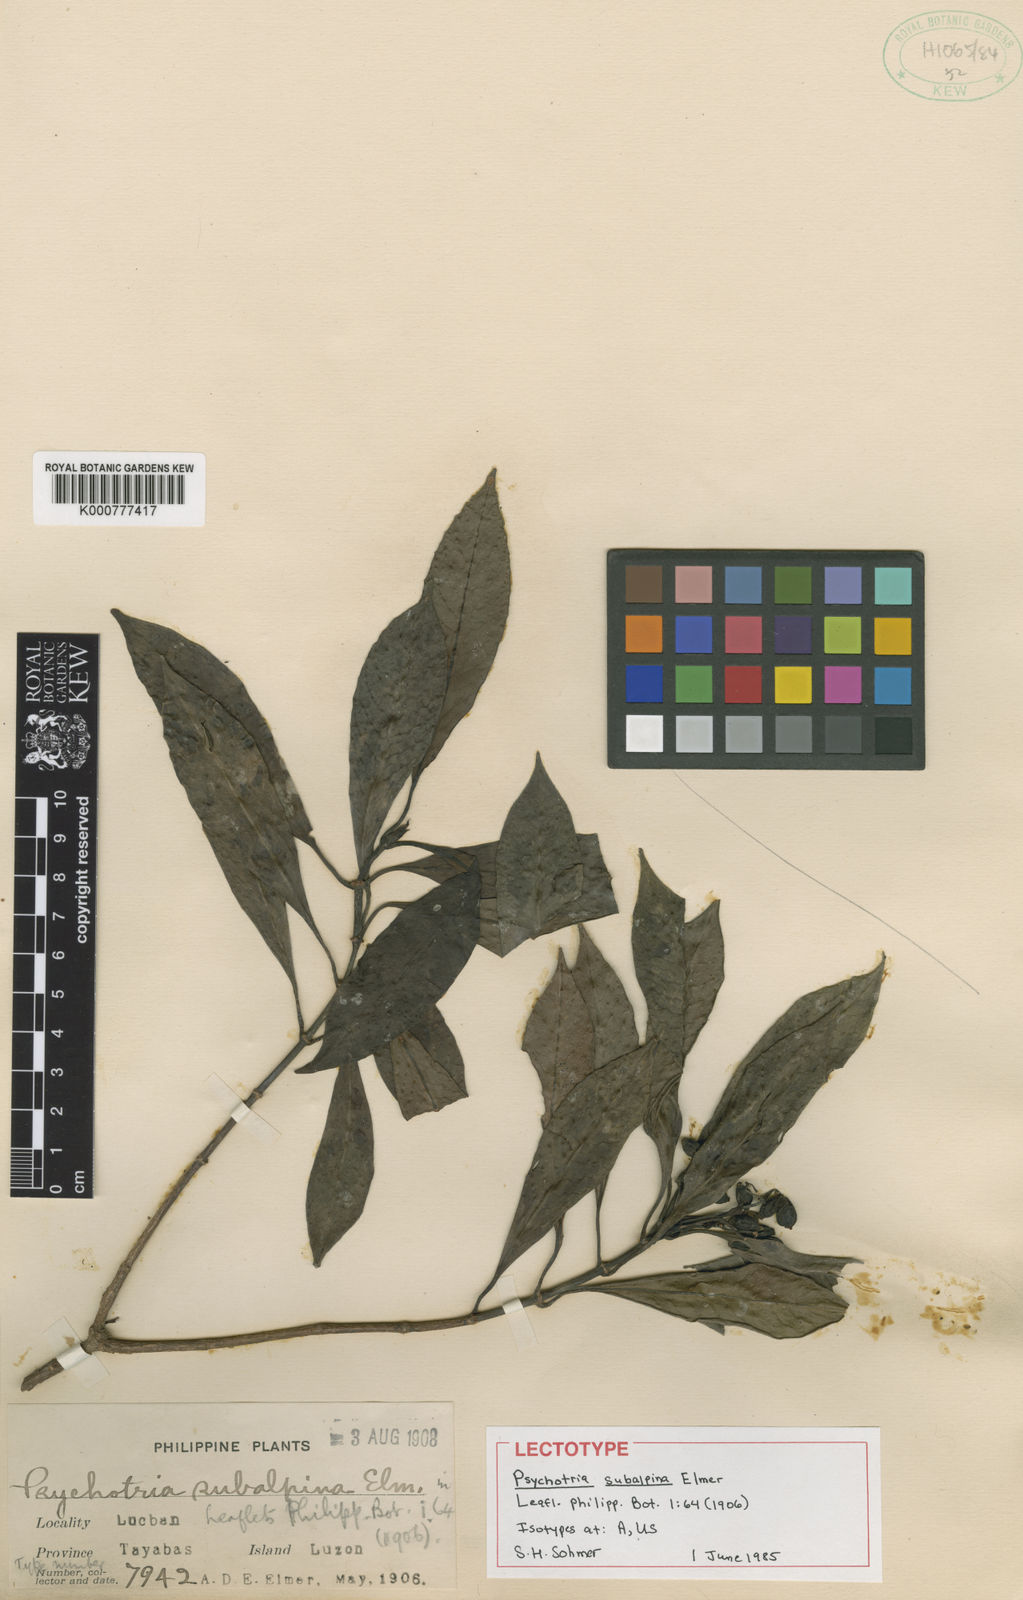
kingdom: Plantae
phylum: Tracheophyta
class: Magnoliopsida
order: Gentianales
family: Rubiaceae
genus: Psychotria
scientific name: Psychotria subalpina
